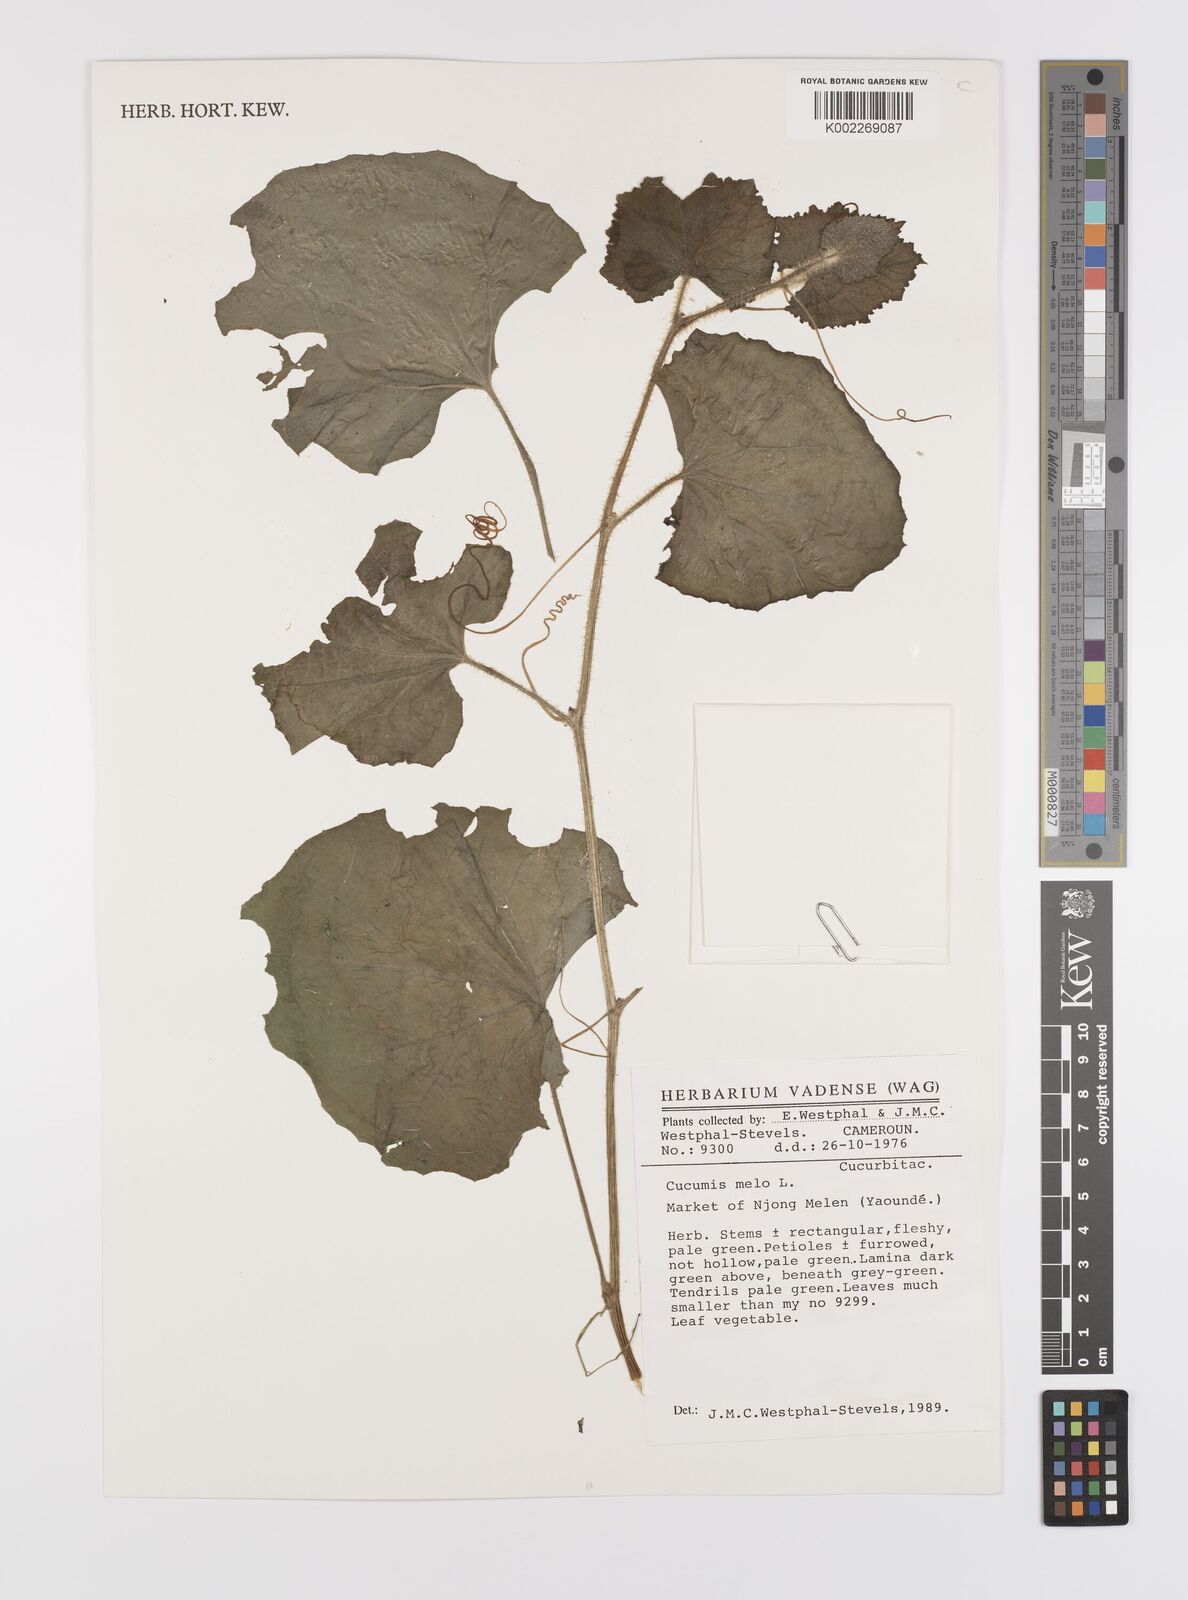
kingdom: Plantae
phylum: Tracheophyta
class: Magnoliopsida
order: Cucurbitales
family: Cucurbitaceae
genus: Cucumis
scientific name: Cucumis melo
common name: Melon
